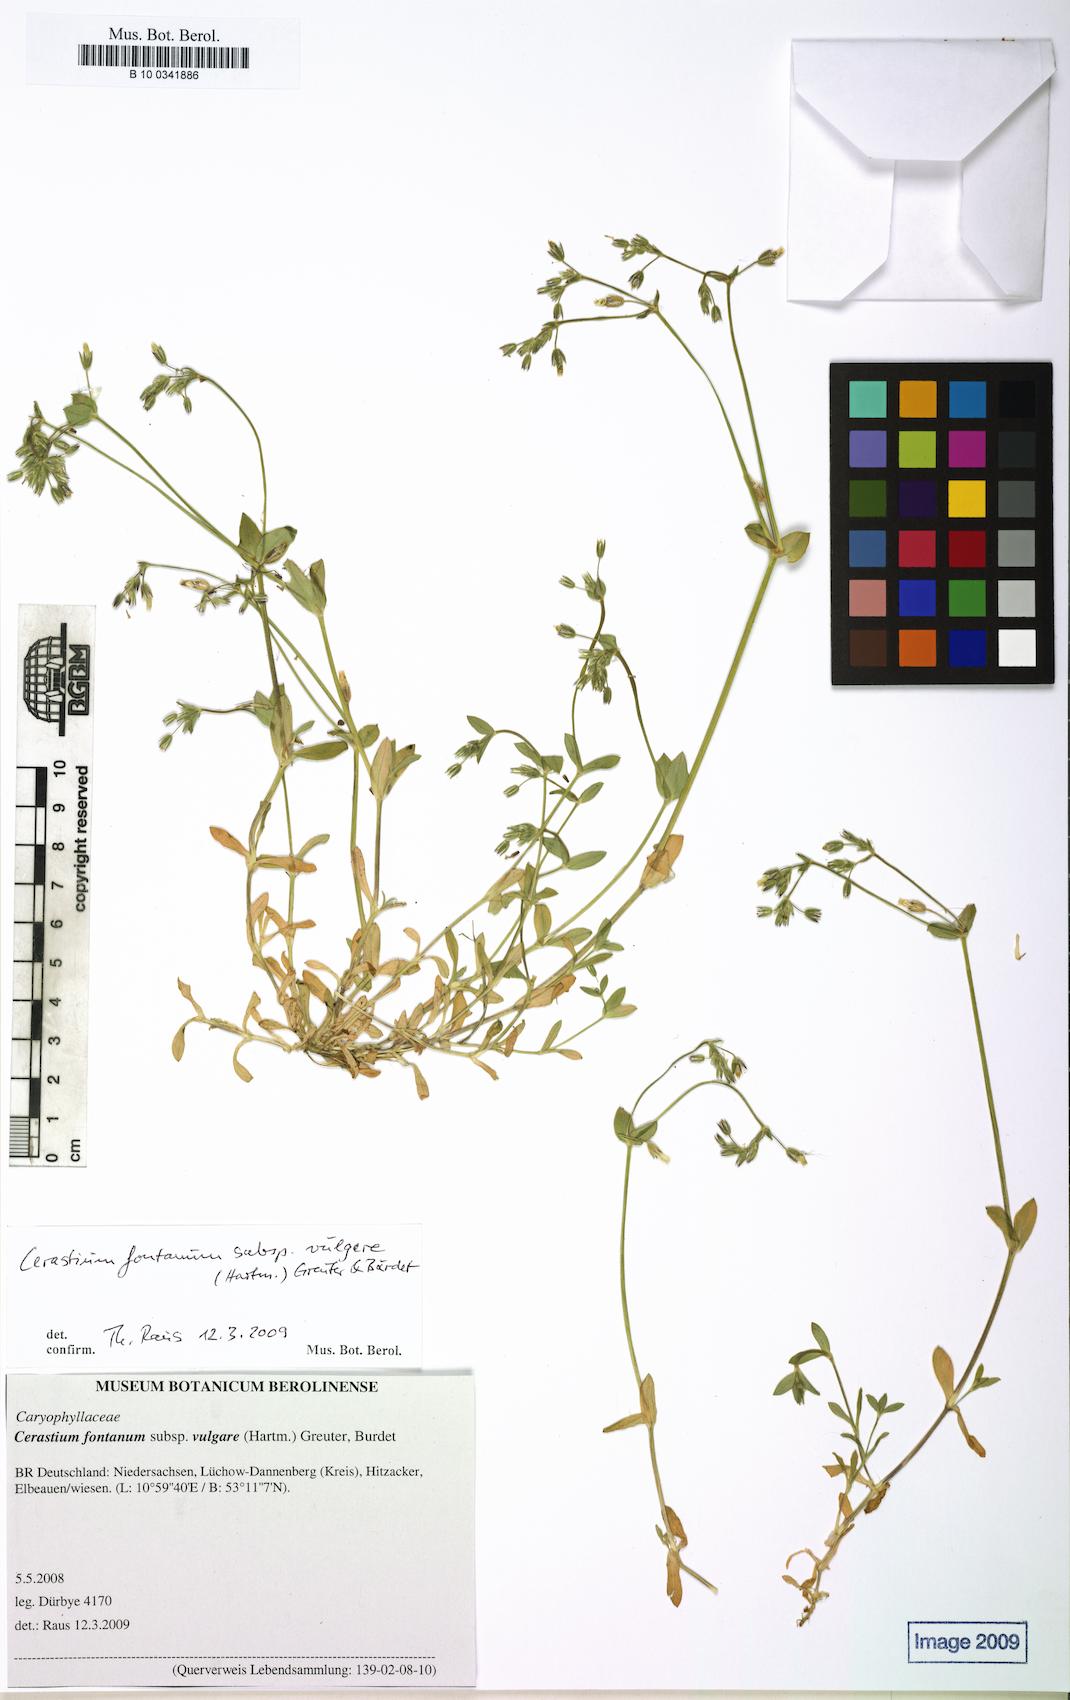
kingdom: Plantae
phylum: Tracheophyta
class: Magnoliopsida
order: Caryophyllales
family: Caryophyllaceae
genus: Cerastium
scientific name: Cerastium holosteoides
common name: Big chickweed
